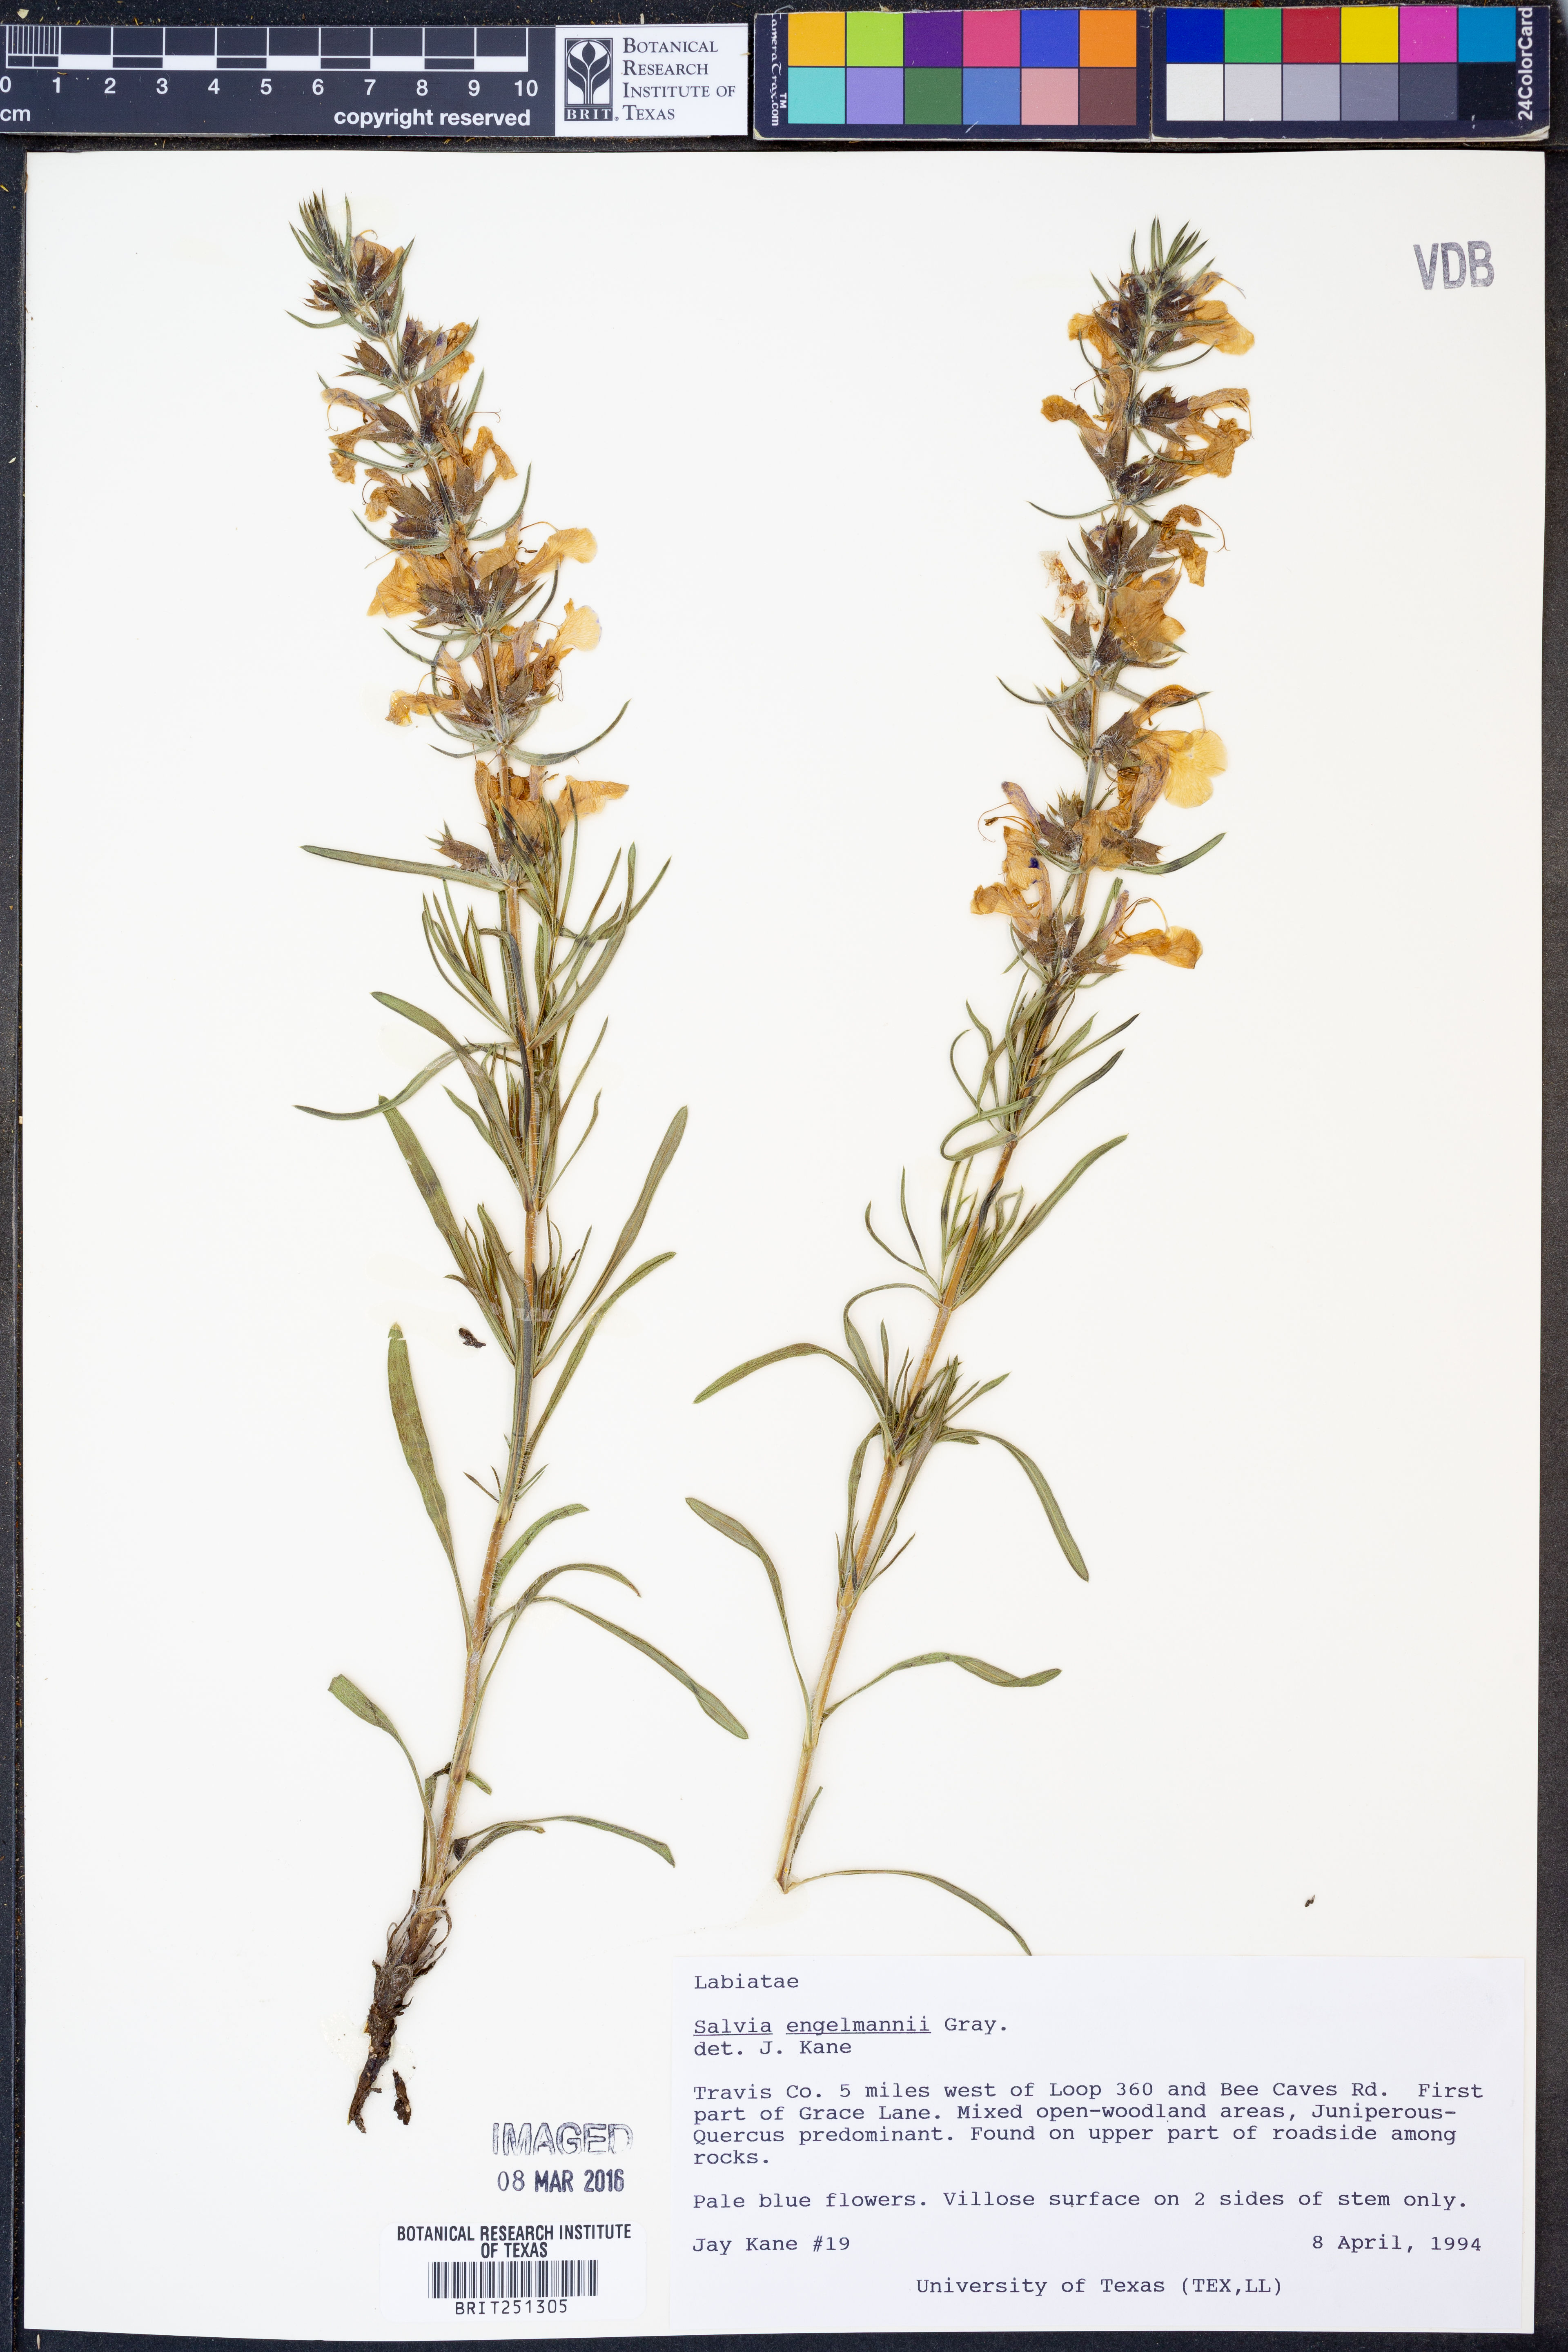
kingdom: Plantae
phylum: Tracheophyta
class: Magnoliopsida
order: Lamiales
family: Lamiaceae
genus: Salvia
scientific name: Salvia engelmannii
